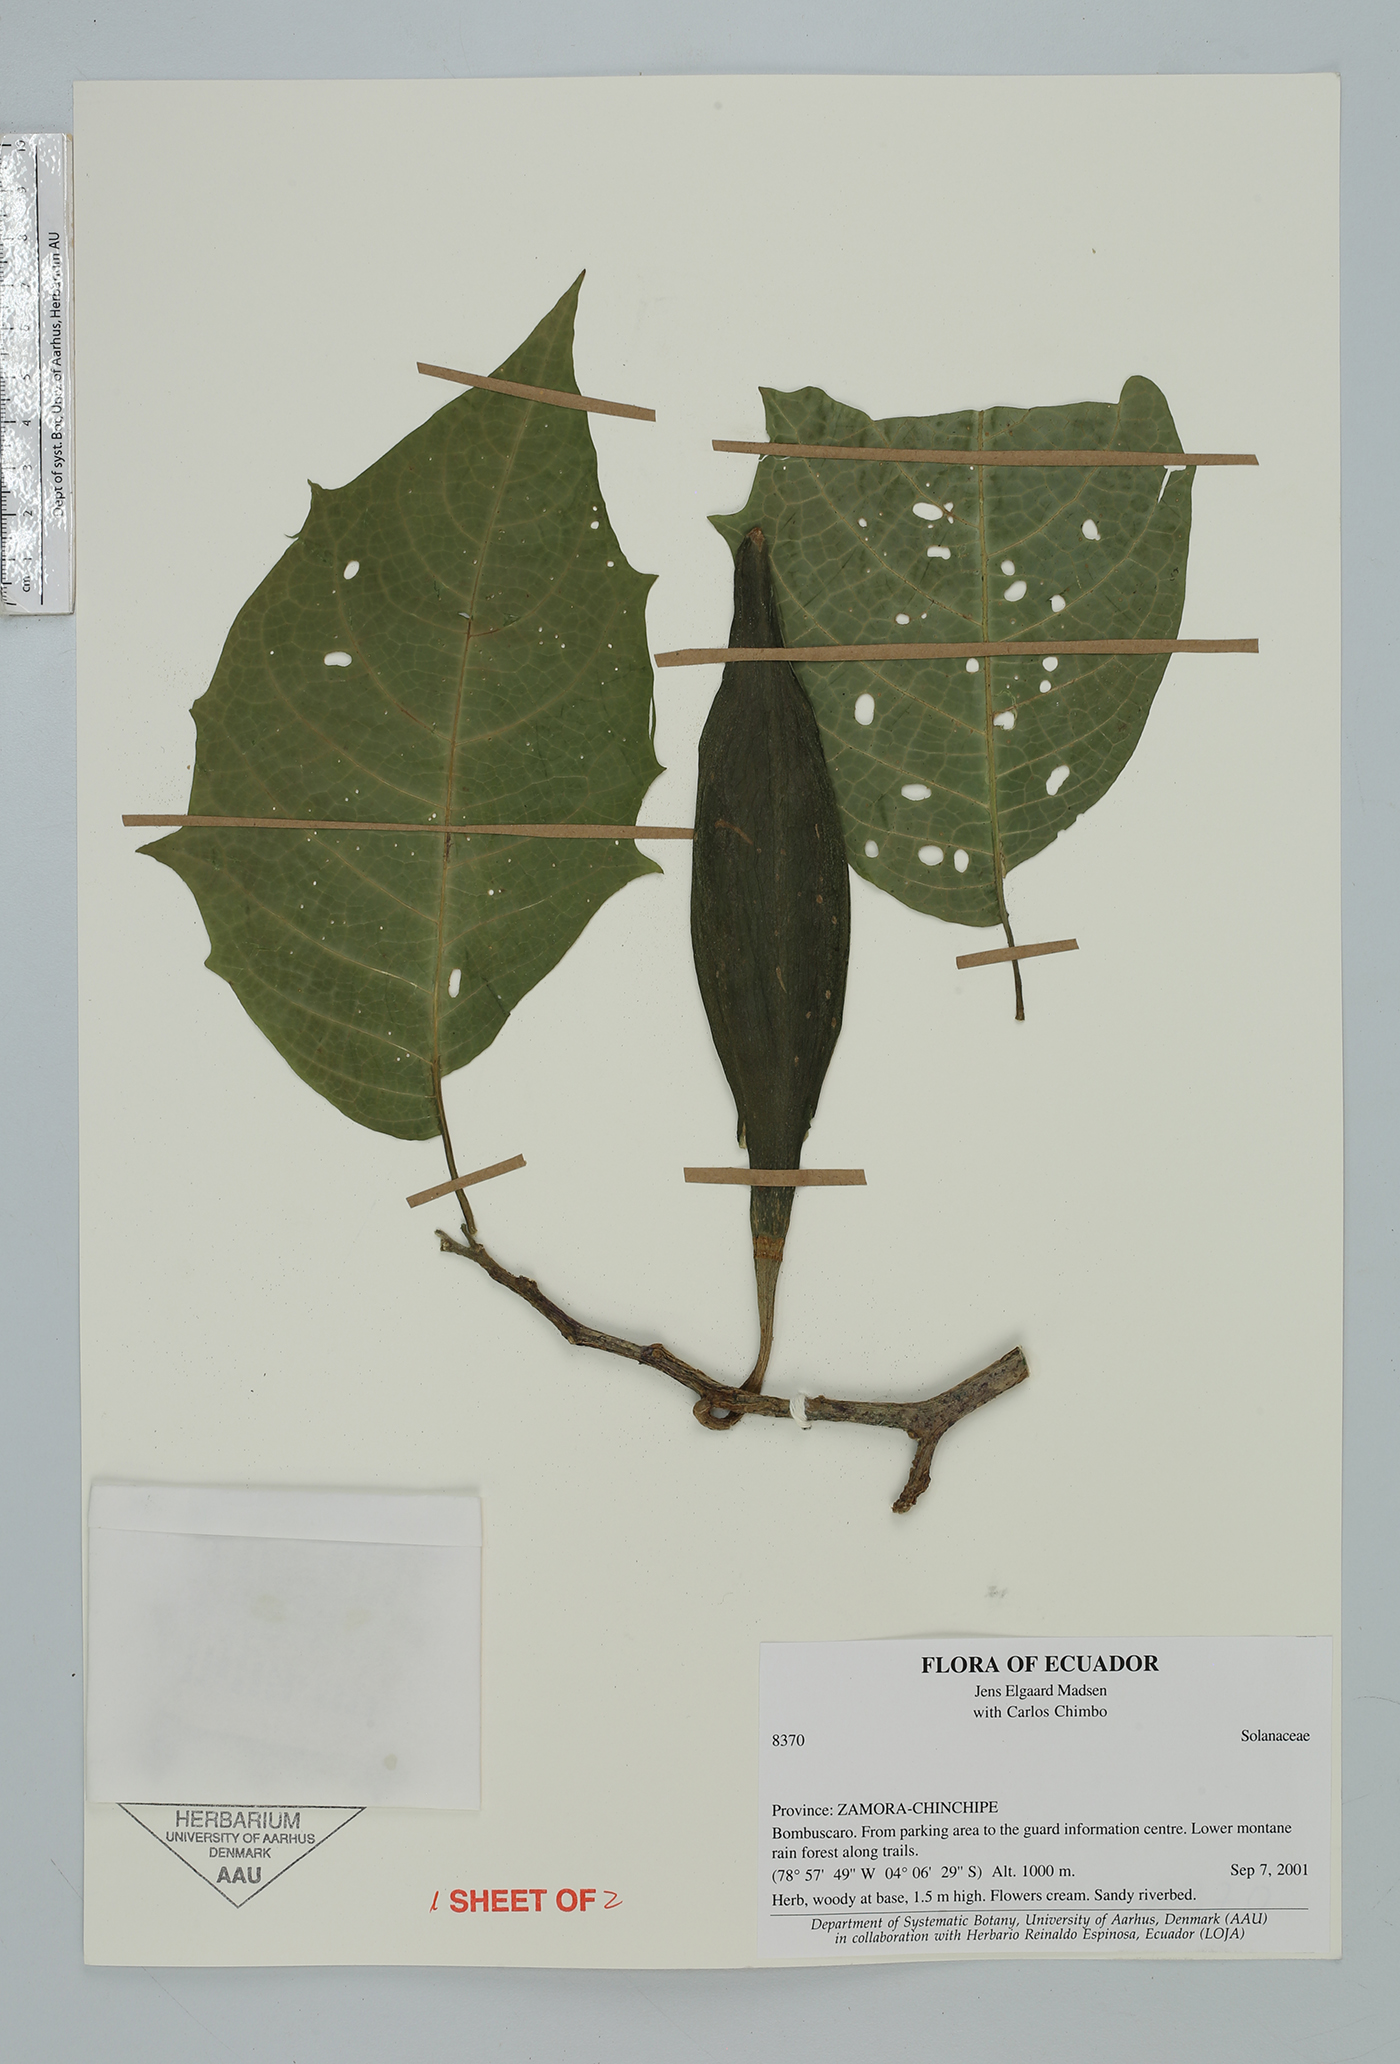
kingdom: Plantae
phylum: Tracheophyta
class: Magnoliopsida
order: Solanales
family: Solanaceae
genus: Brugmansia
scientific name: Brugmansia
